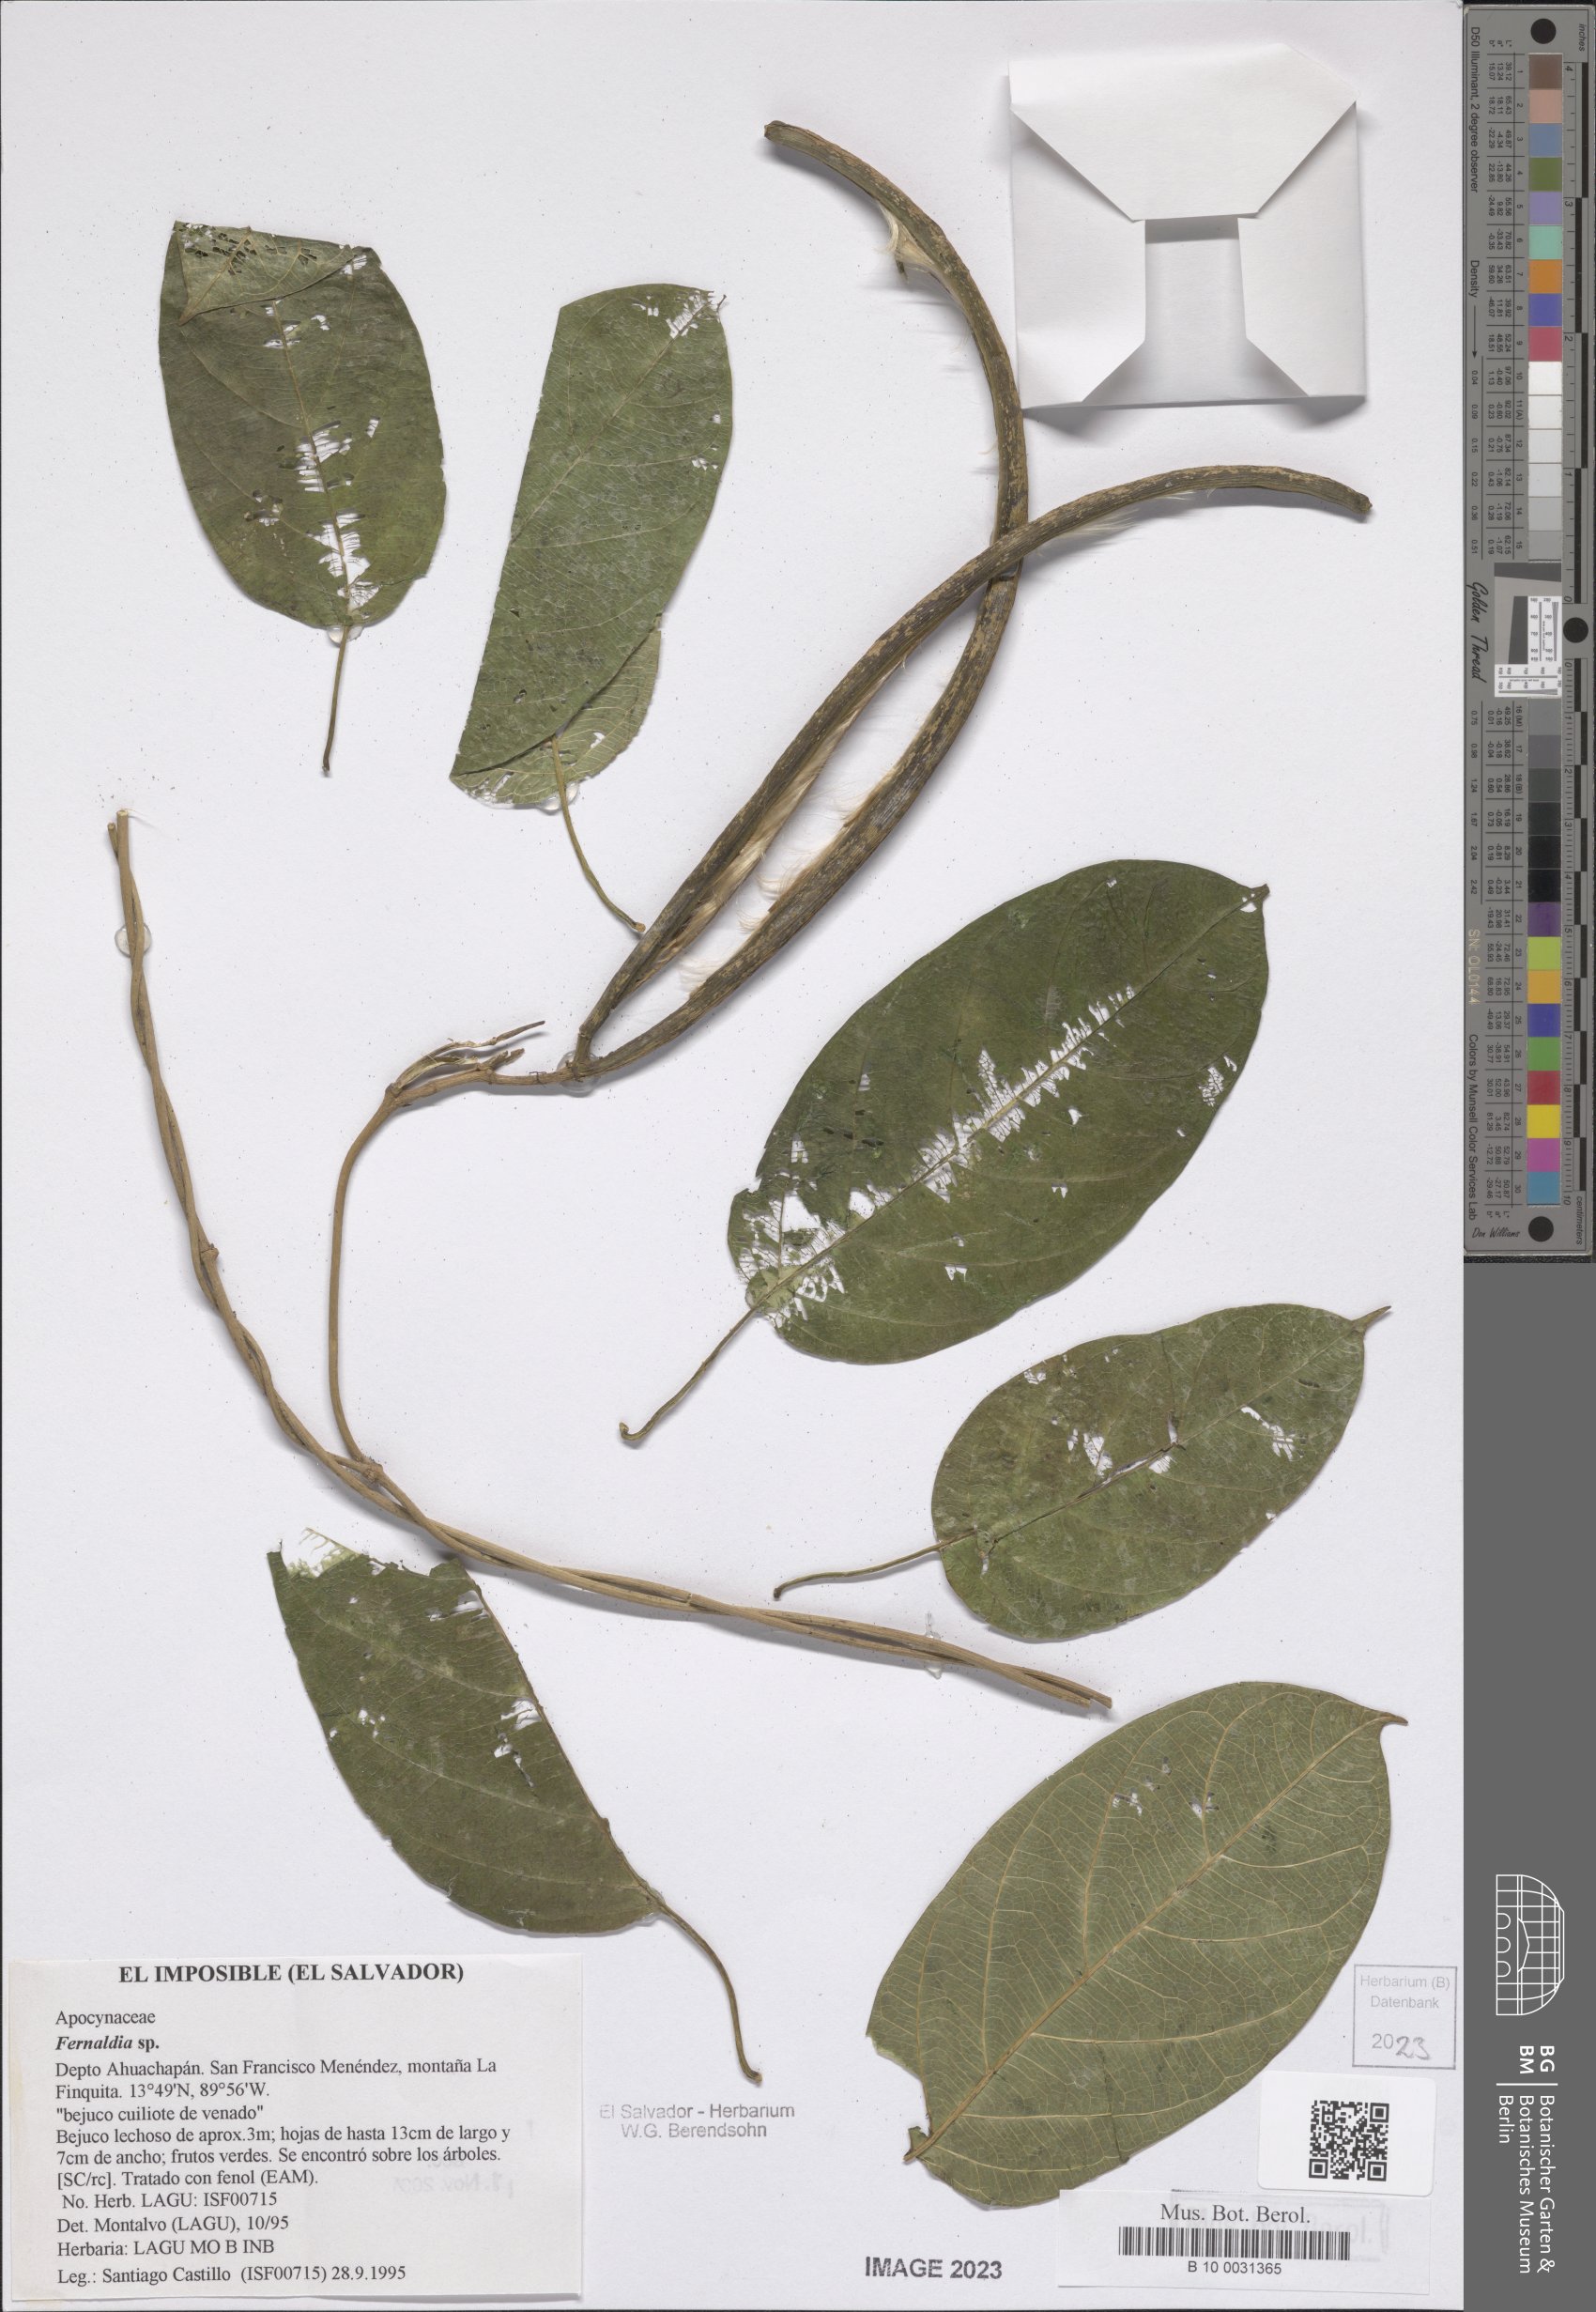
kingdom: Plantae
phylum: Tracheophyta
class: Magnoliopsida
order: Gentianales
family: Apocynaceae
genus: Echites
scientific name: Echites
